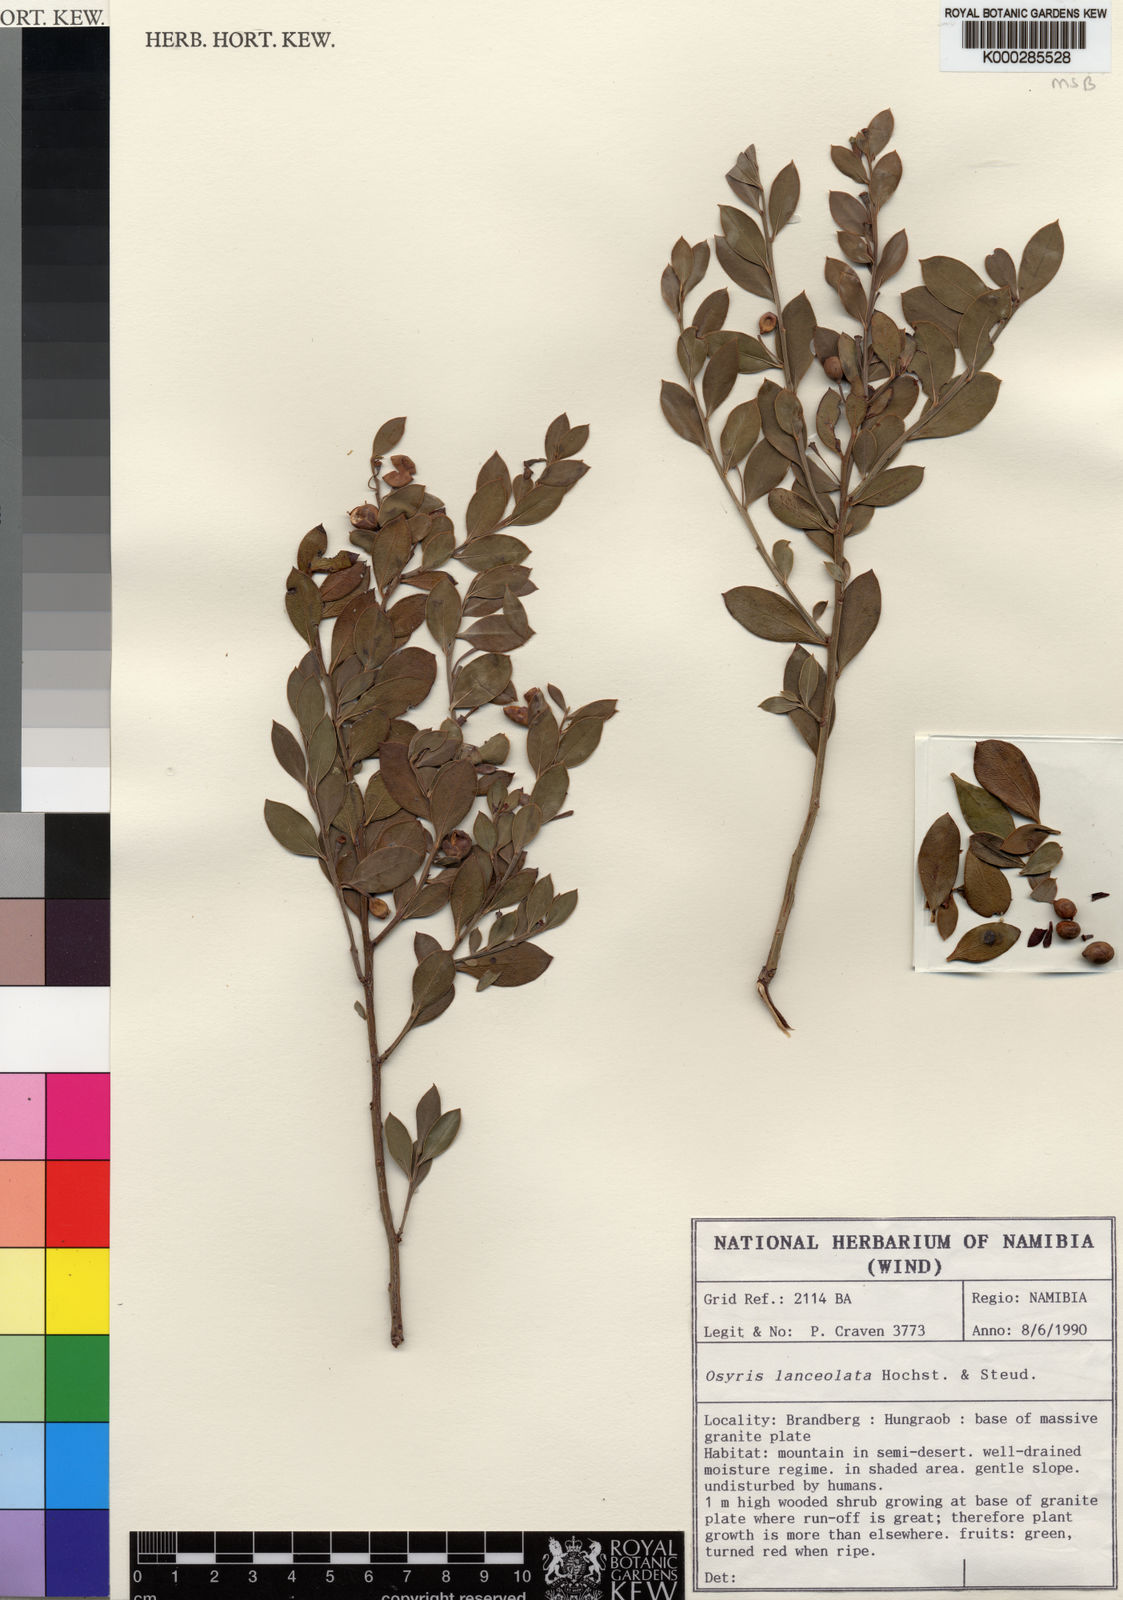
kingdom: Plantae
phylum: Tracheophyta
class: Magnoliopsida
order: Santalales
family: Santalaceae
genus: Osyris
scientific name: Osyris
